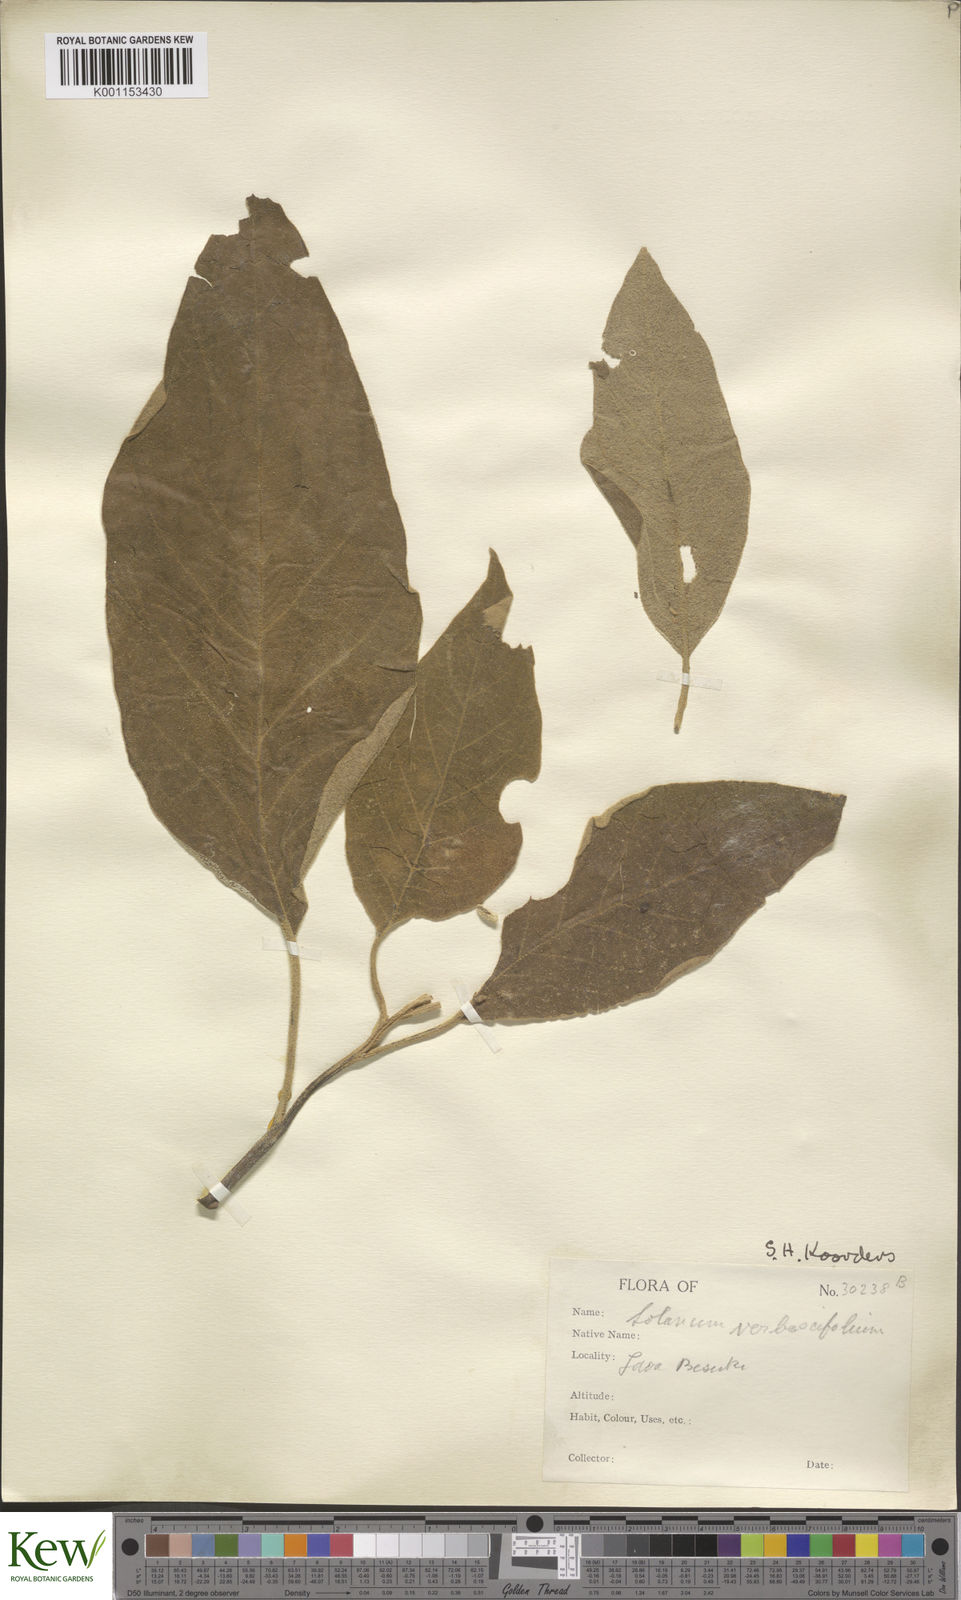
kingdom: Plantae
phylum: Tracheophyta
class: Magnoliopsida
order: Solanales
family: Solanaceae
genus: Solanum
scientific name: Solanum donianum
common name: Mullein nightshade
